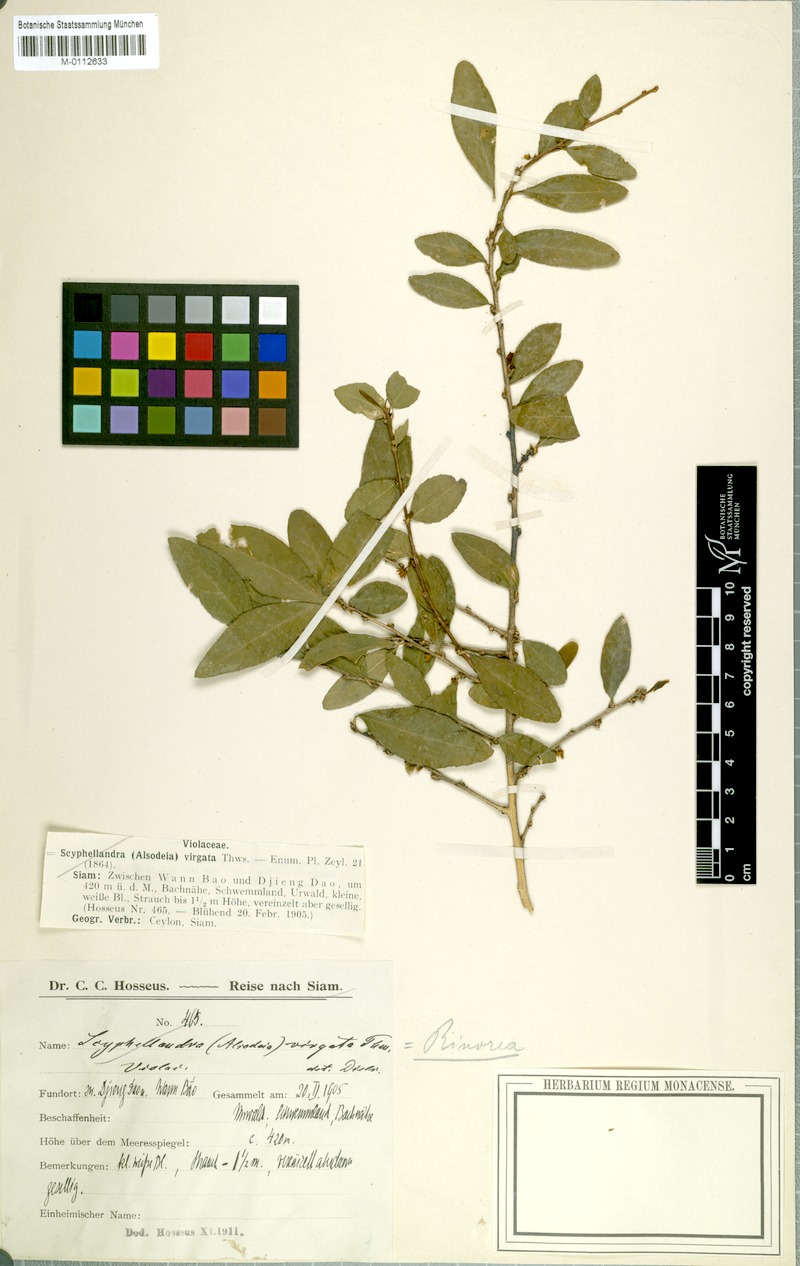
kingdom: Plantae
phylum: Tracheophyta
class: Magnoliopsida
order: Malpighiales
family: Violaceae
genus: Scyphellandra
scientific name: Scyphellandra virgata
